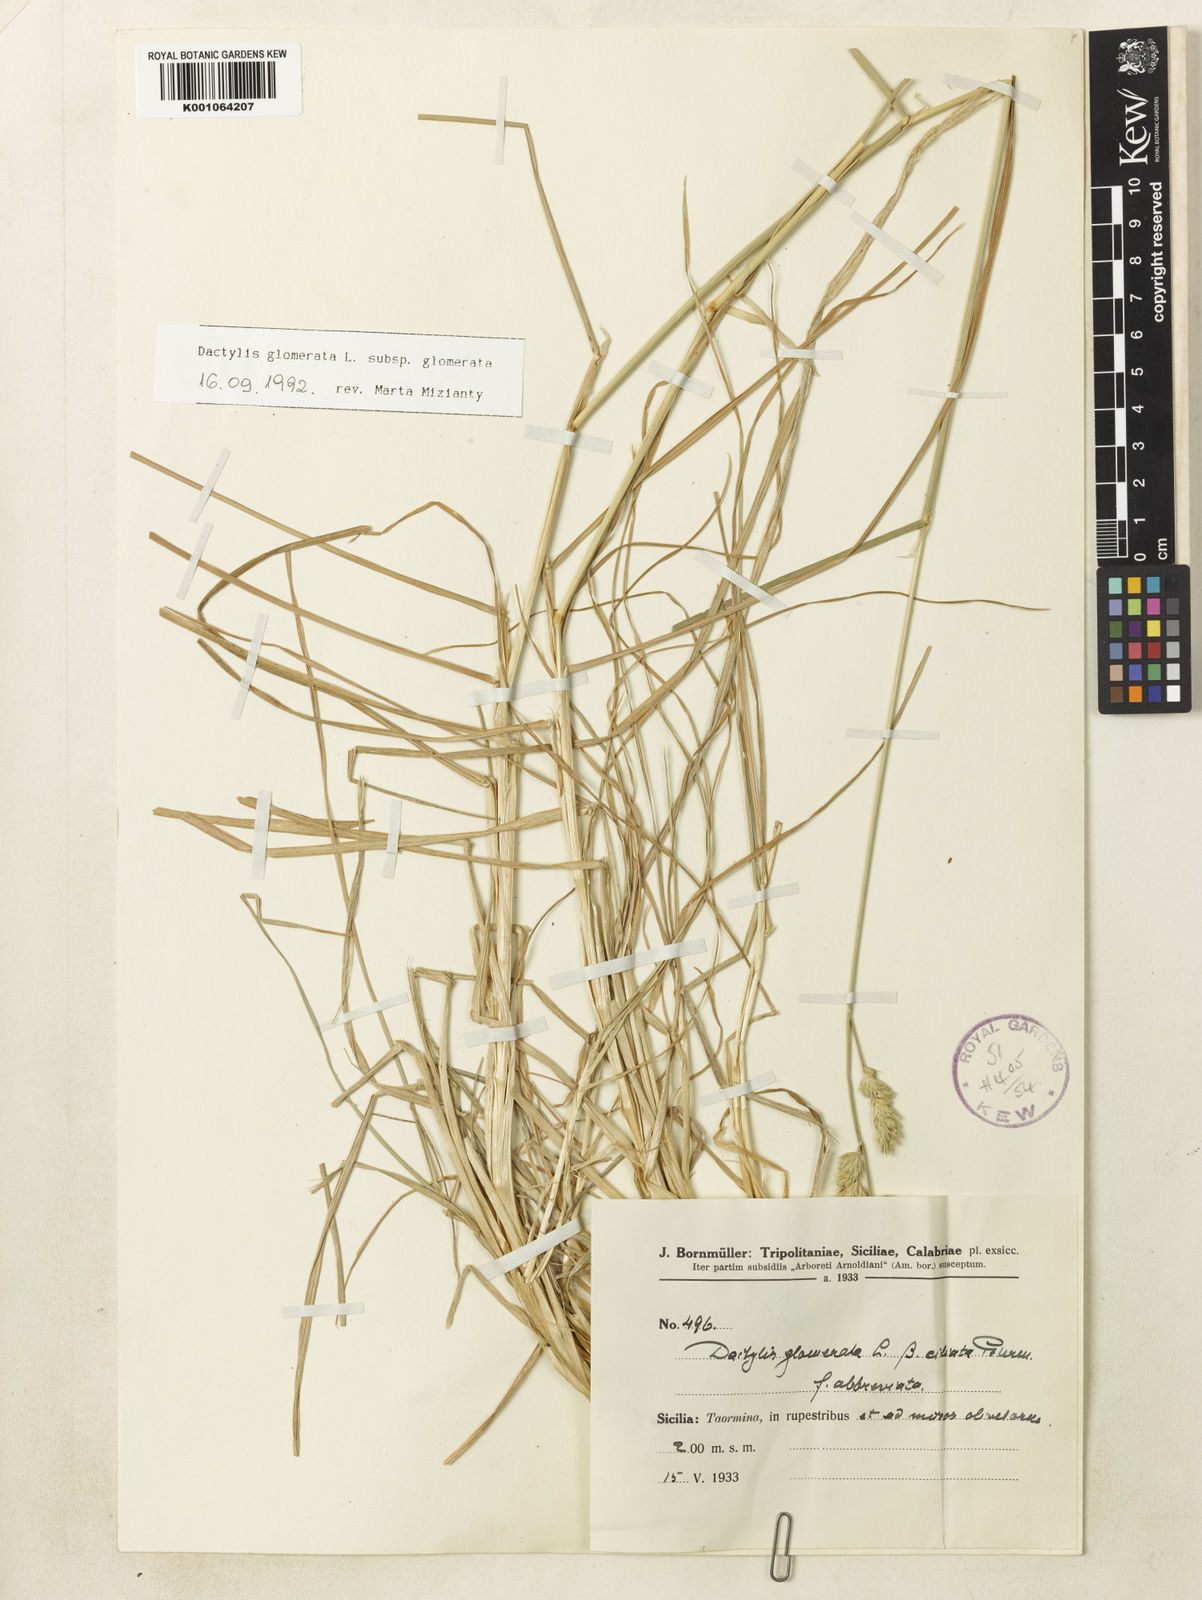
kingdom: Plantae
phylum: Tracheophyta
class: Liliopsida
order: Poales
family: Poaceae
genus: Dactylis
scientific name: Dactylis glomerata
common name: Orchardgrass
